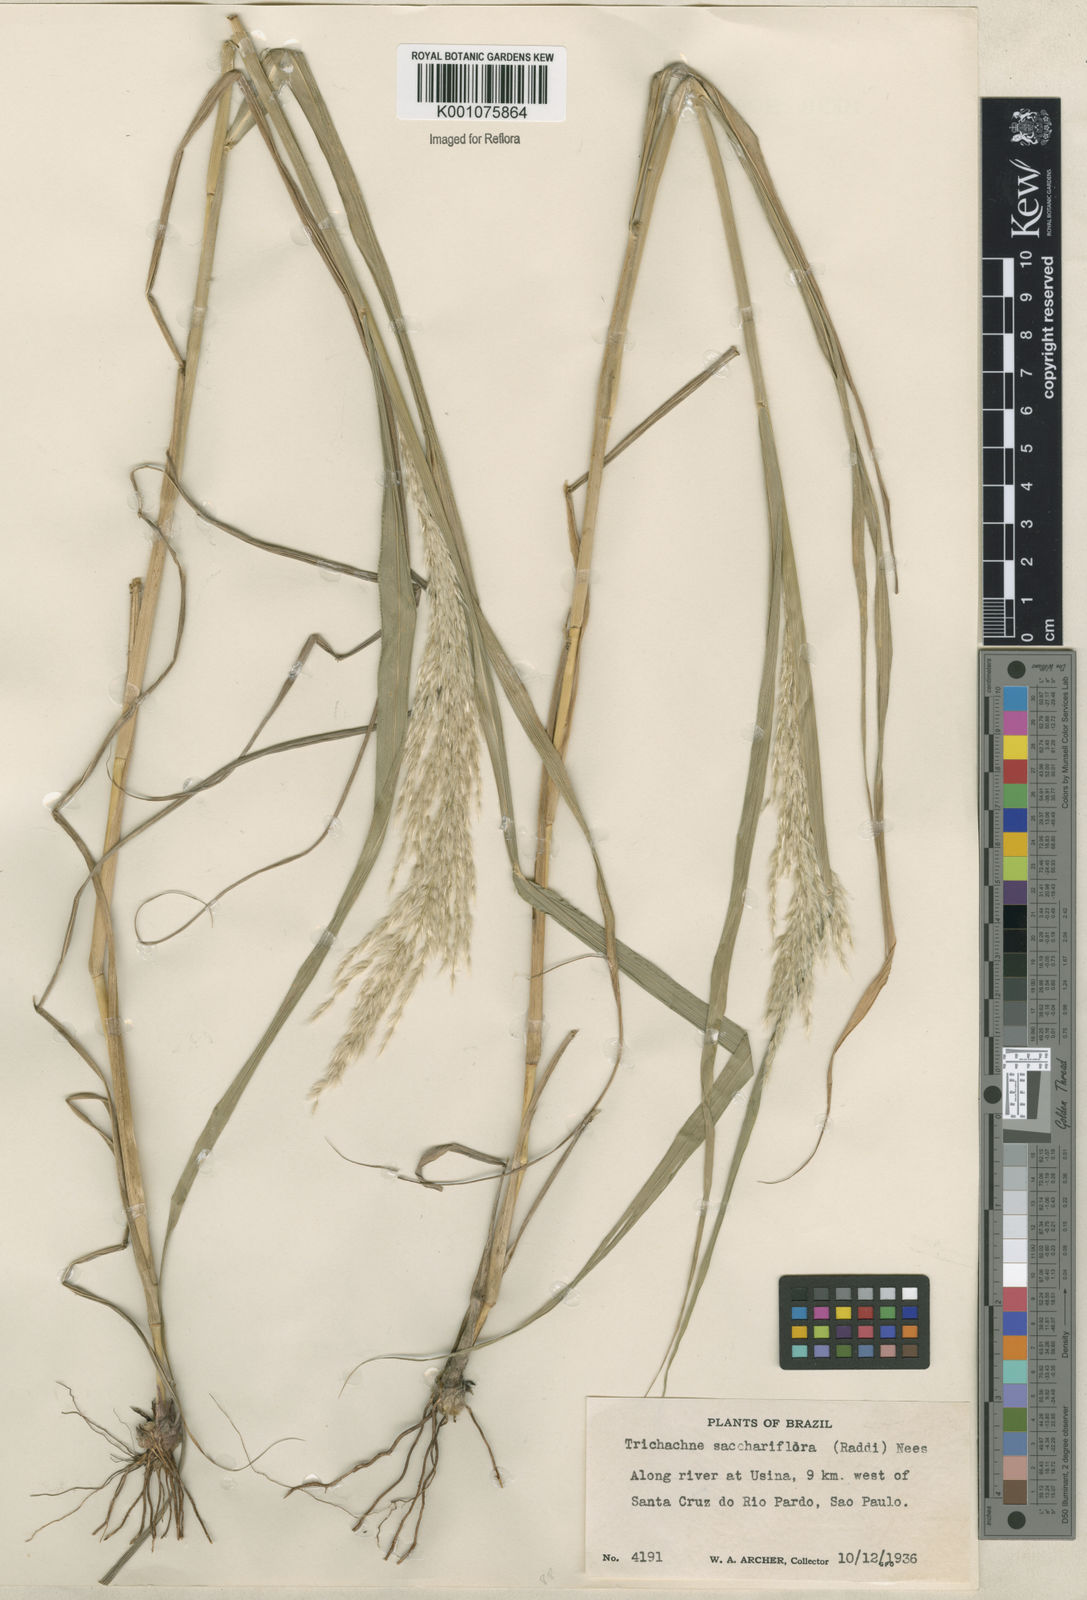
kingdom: Plantae
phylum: Tracheophyta
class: Liliopsida
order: Poales
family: Poaceae
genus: Digitaria
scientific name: Digitaria
